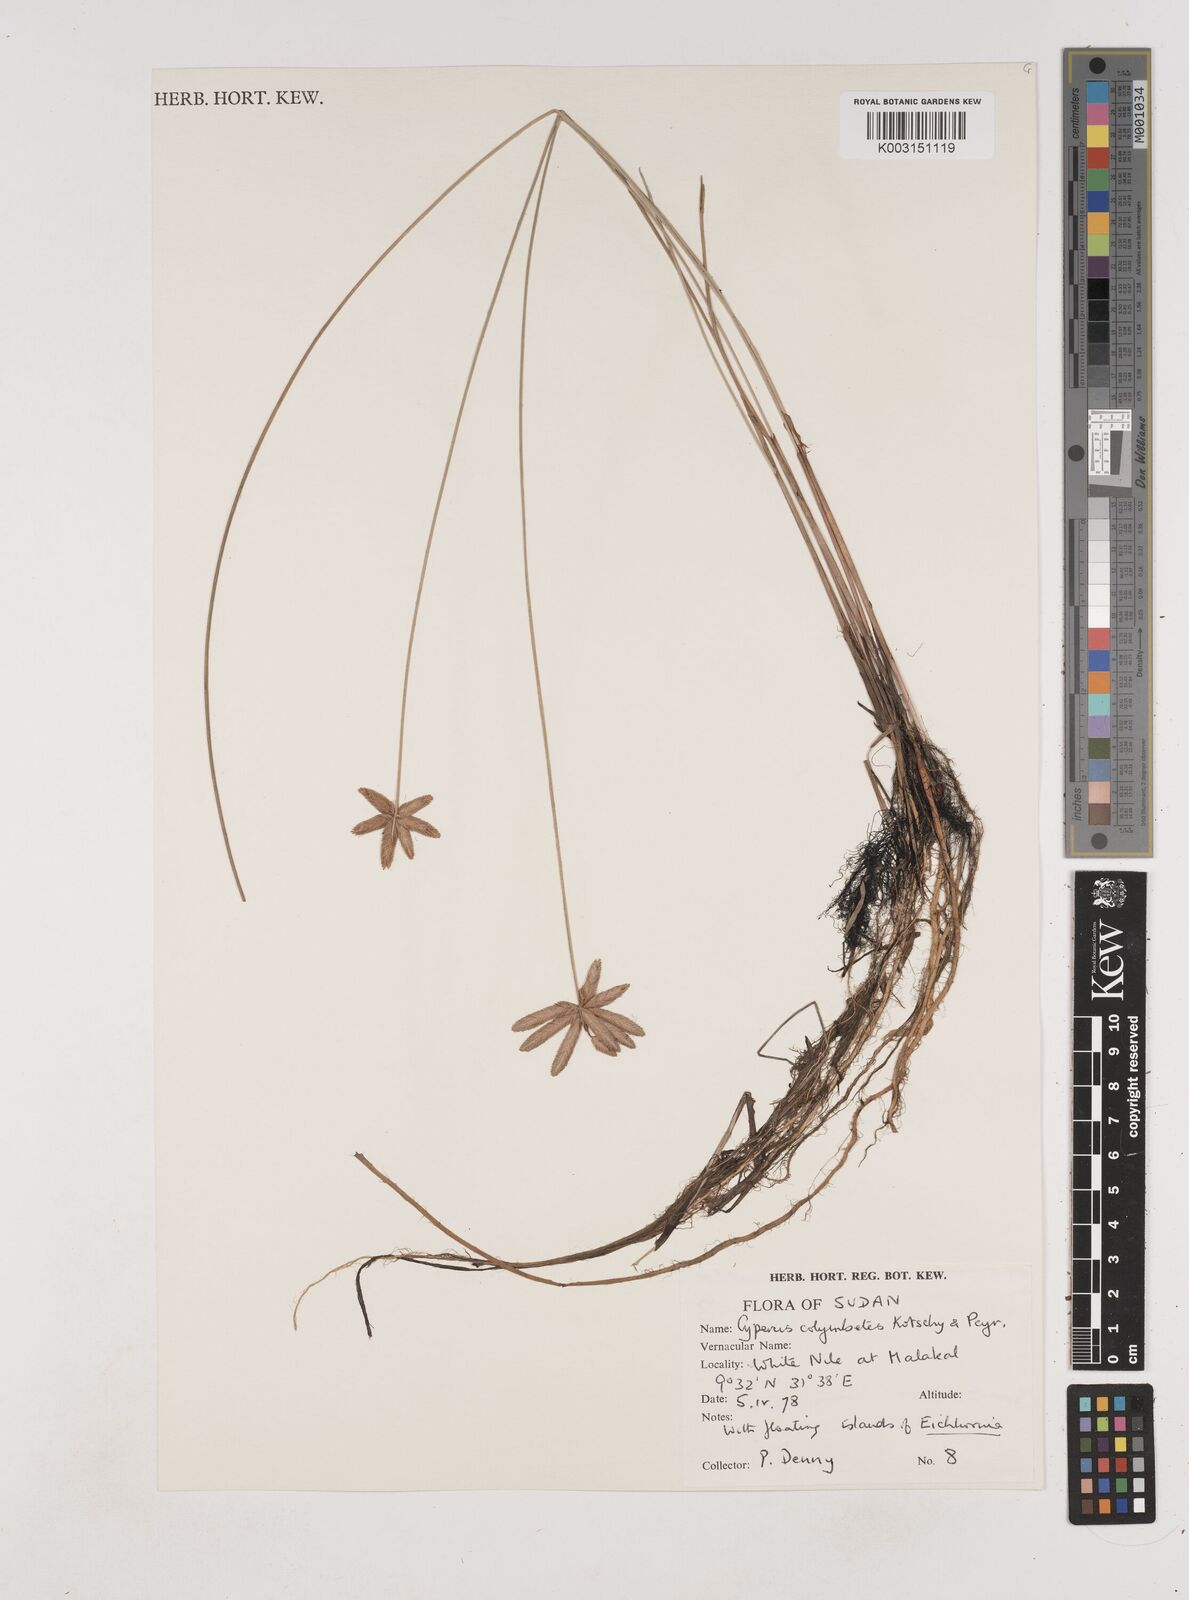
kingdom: Plantae
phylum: Tracheophyta
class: Liliopsida
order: Poales
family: Cyperaceae
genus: Cyperus
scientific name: Cyperus colymbetes
